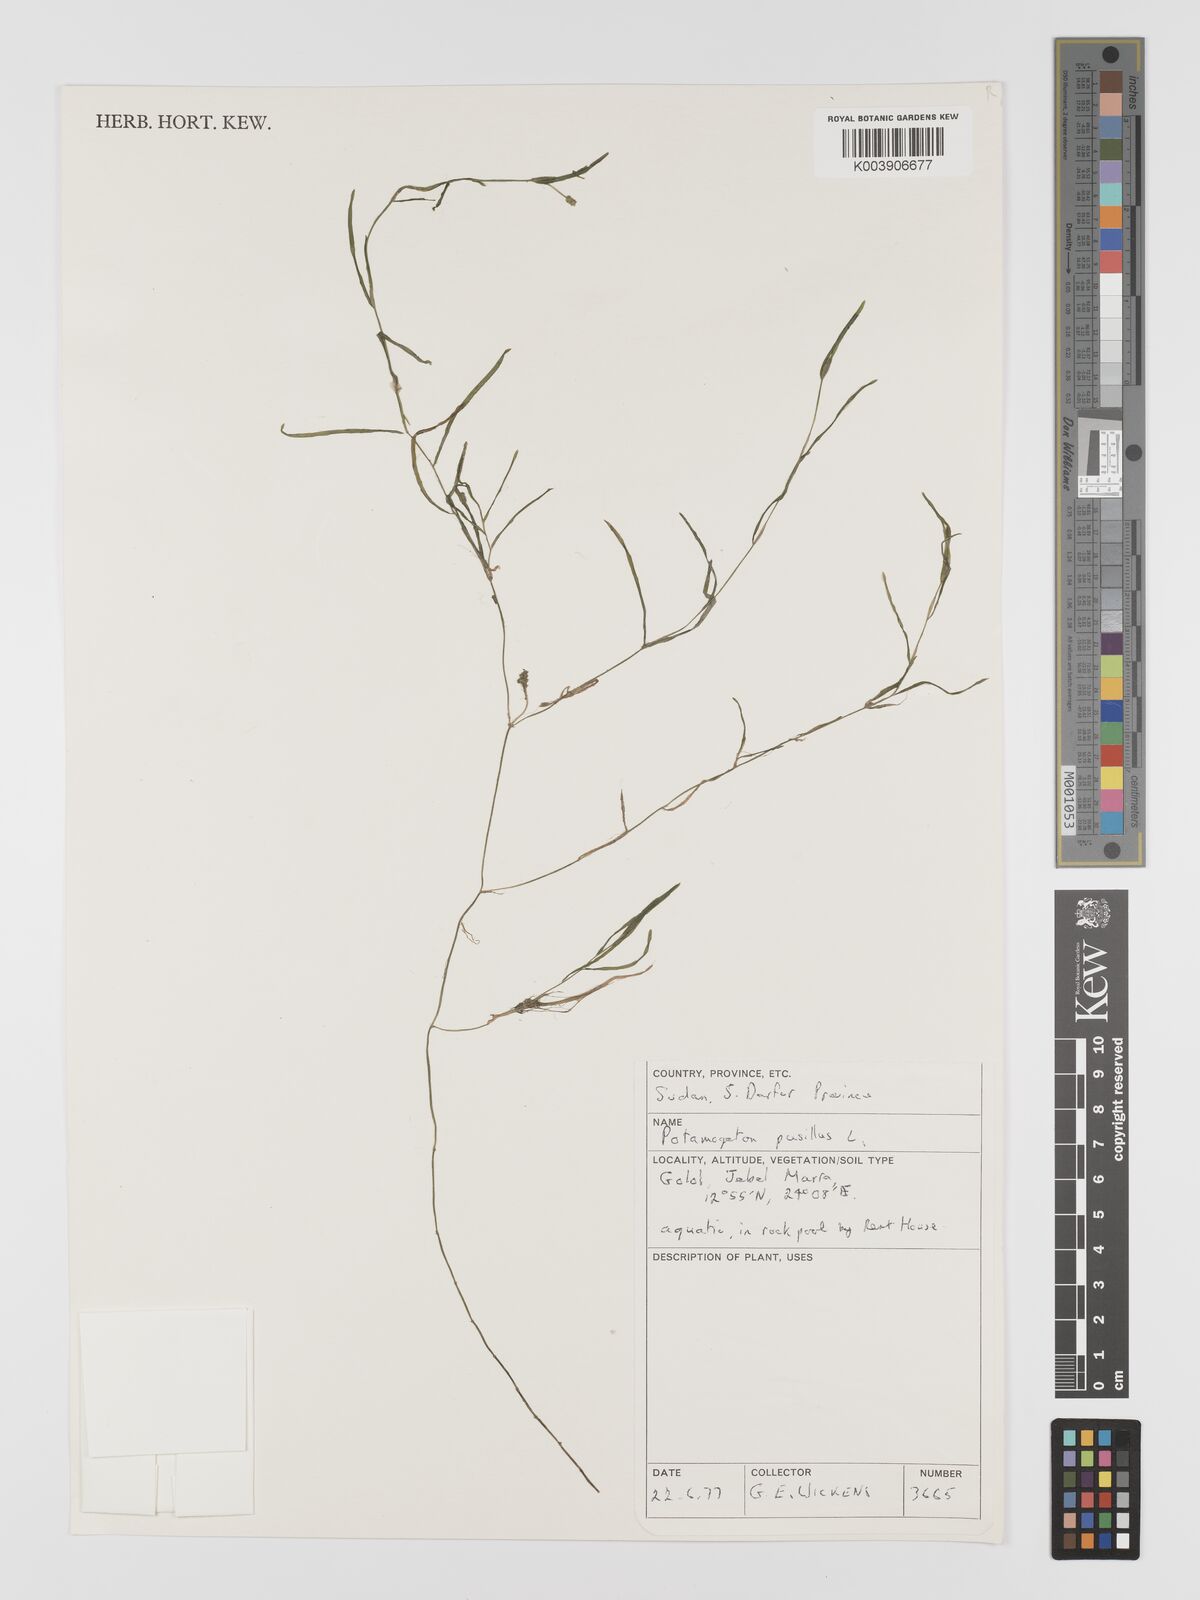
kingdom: Plantae
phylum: Tracheophyta
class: Liliopsida
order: Alismatales
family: Potamogetonaceae
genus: Potamogeton
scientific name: Potamogeton pusillus
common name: Lesser pondweed
